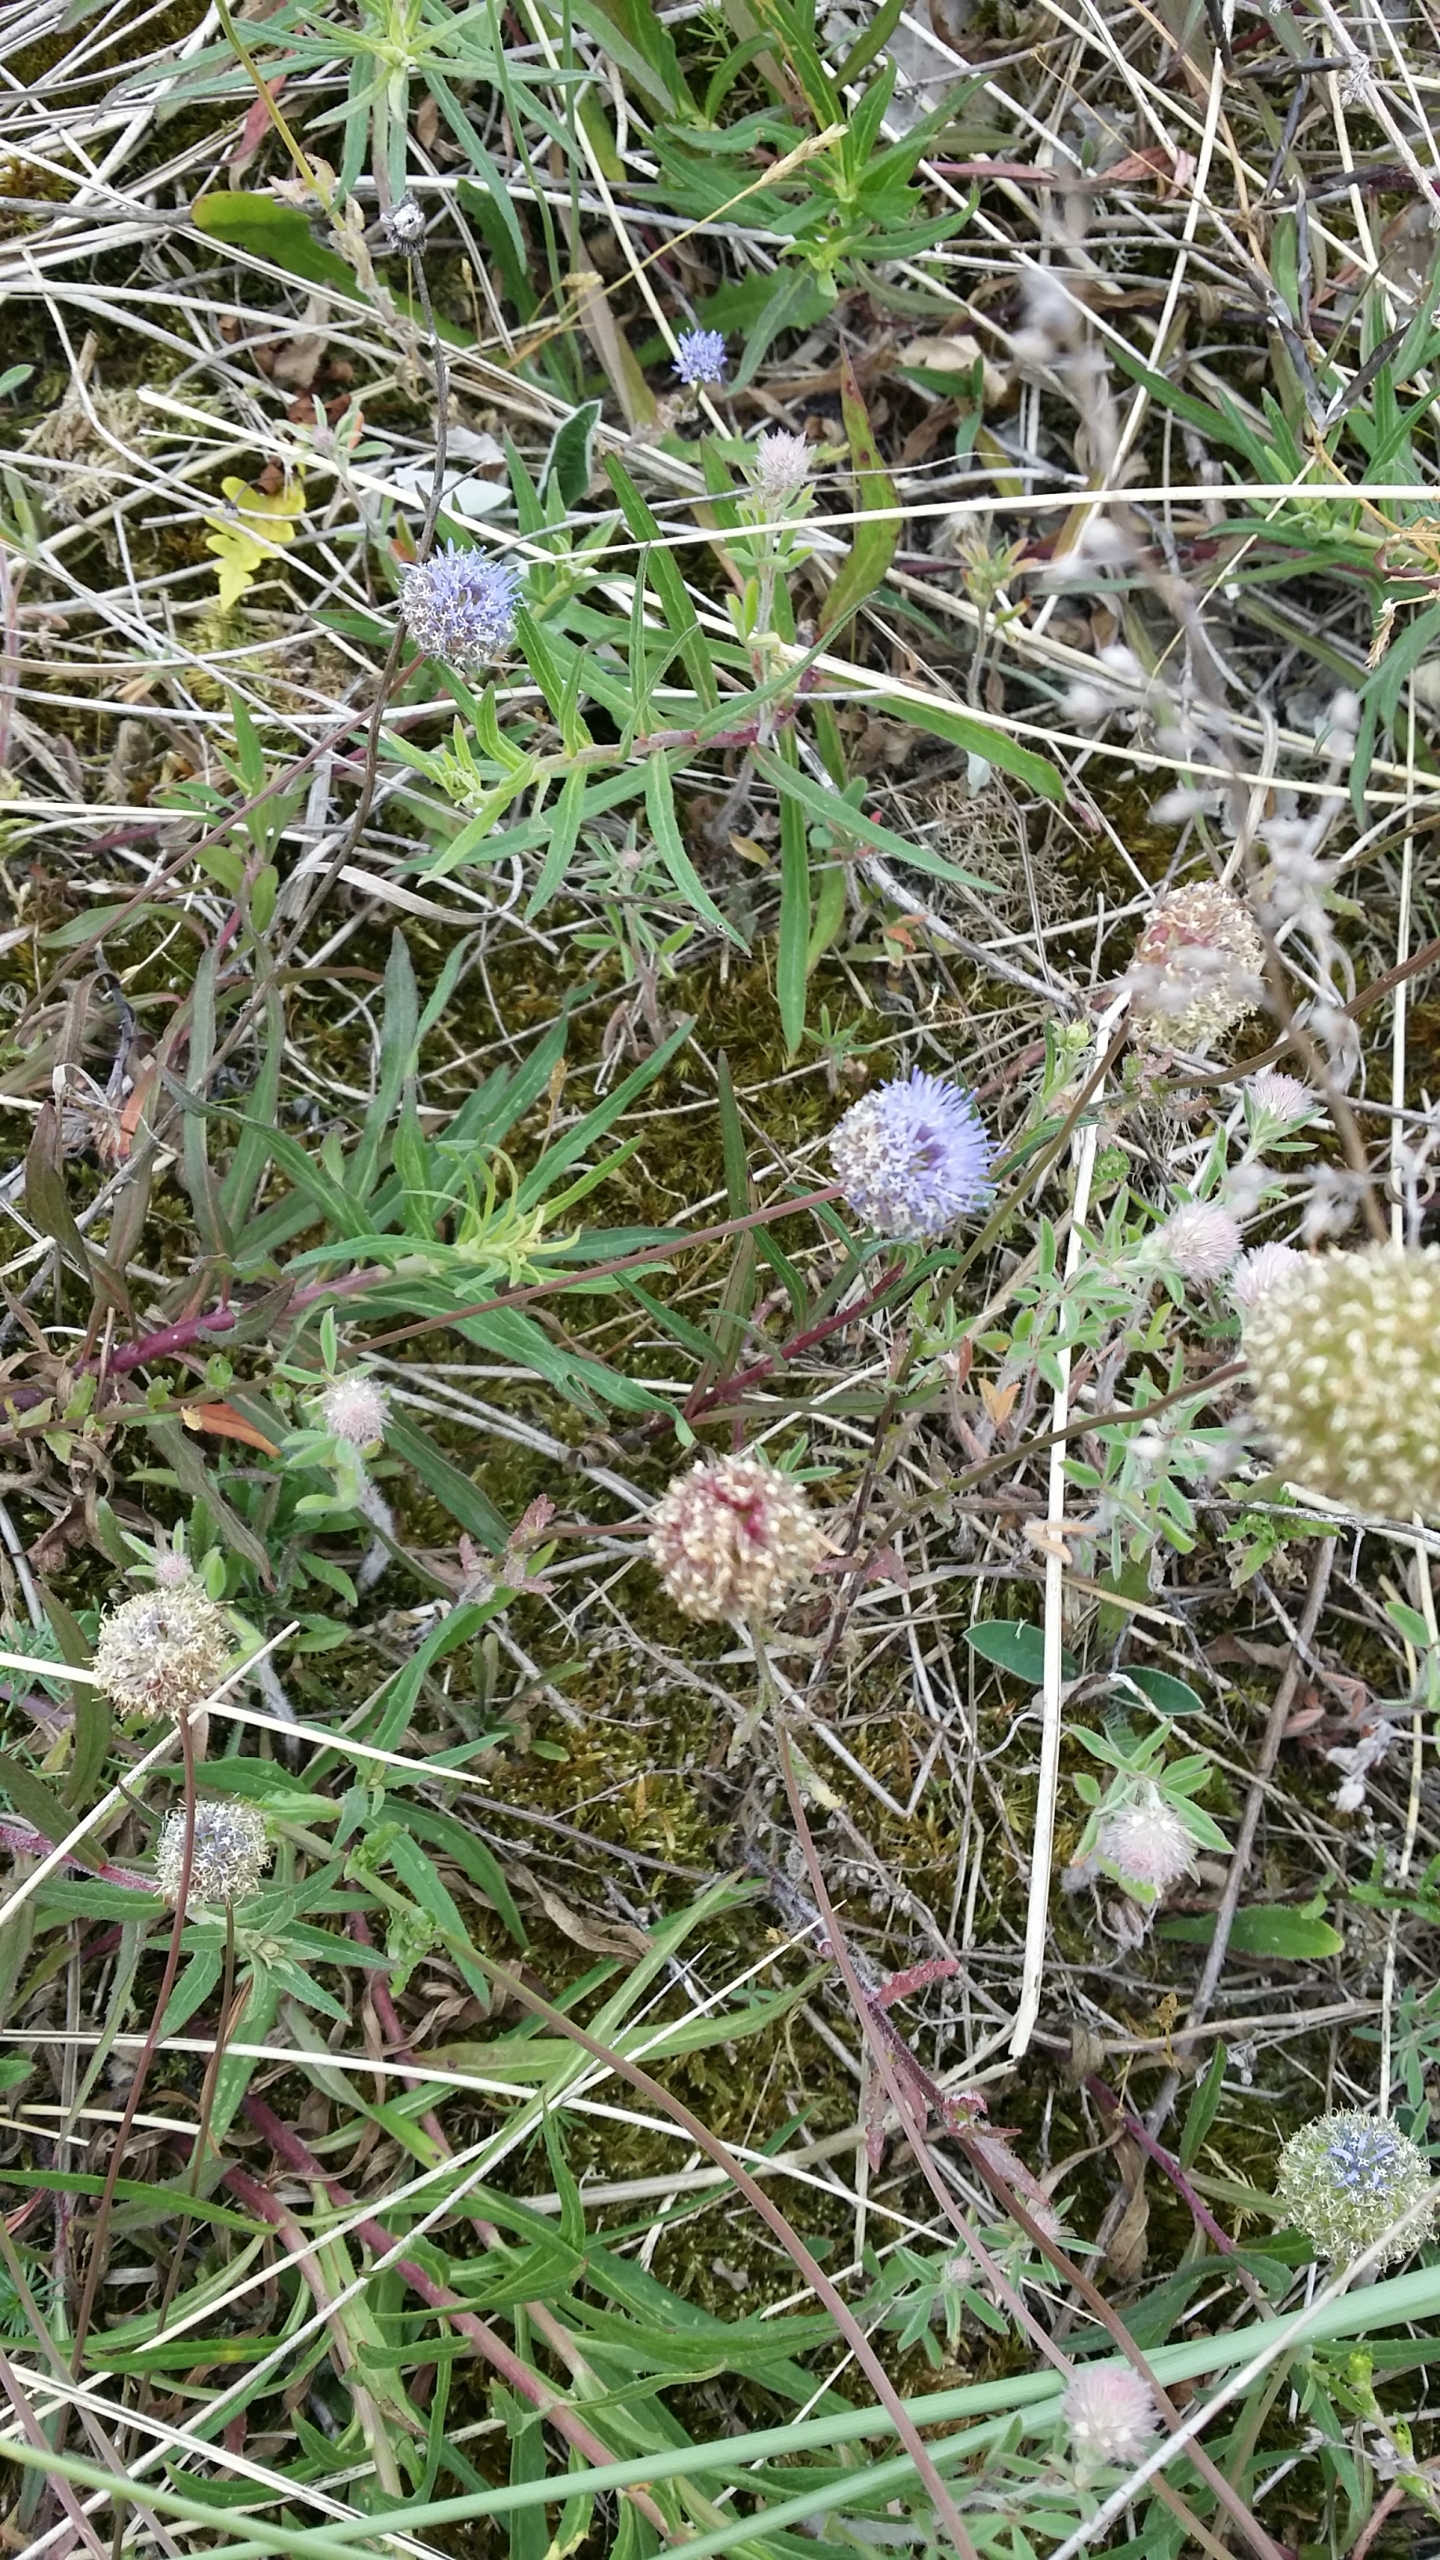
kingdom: Plantae
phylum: Tracheophyta
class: Magnoliopsida
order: Asterales
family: Campanulaceae
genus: Jasione
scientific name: Jasione montana
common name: Blåmunke
